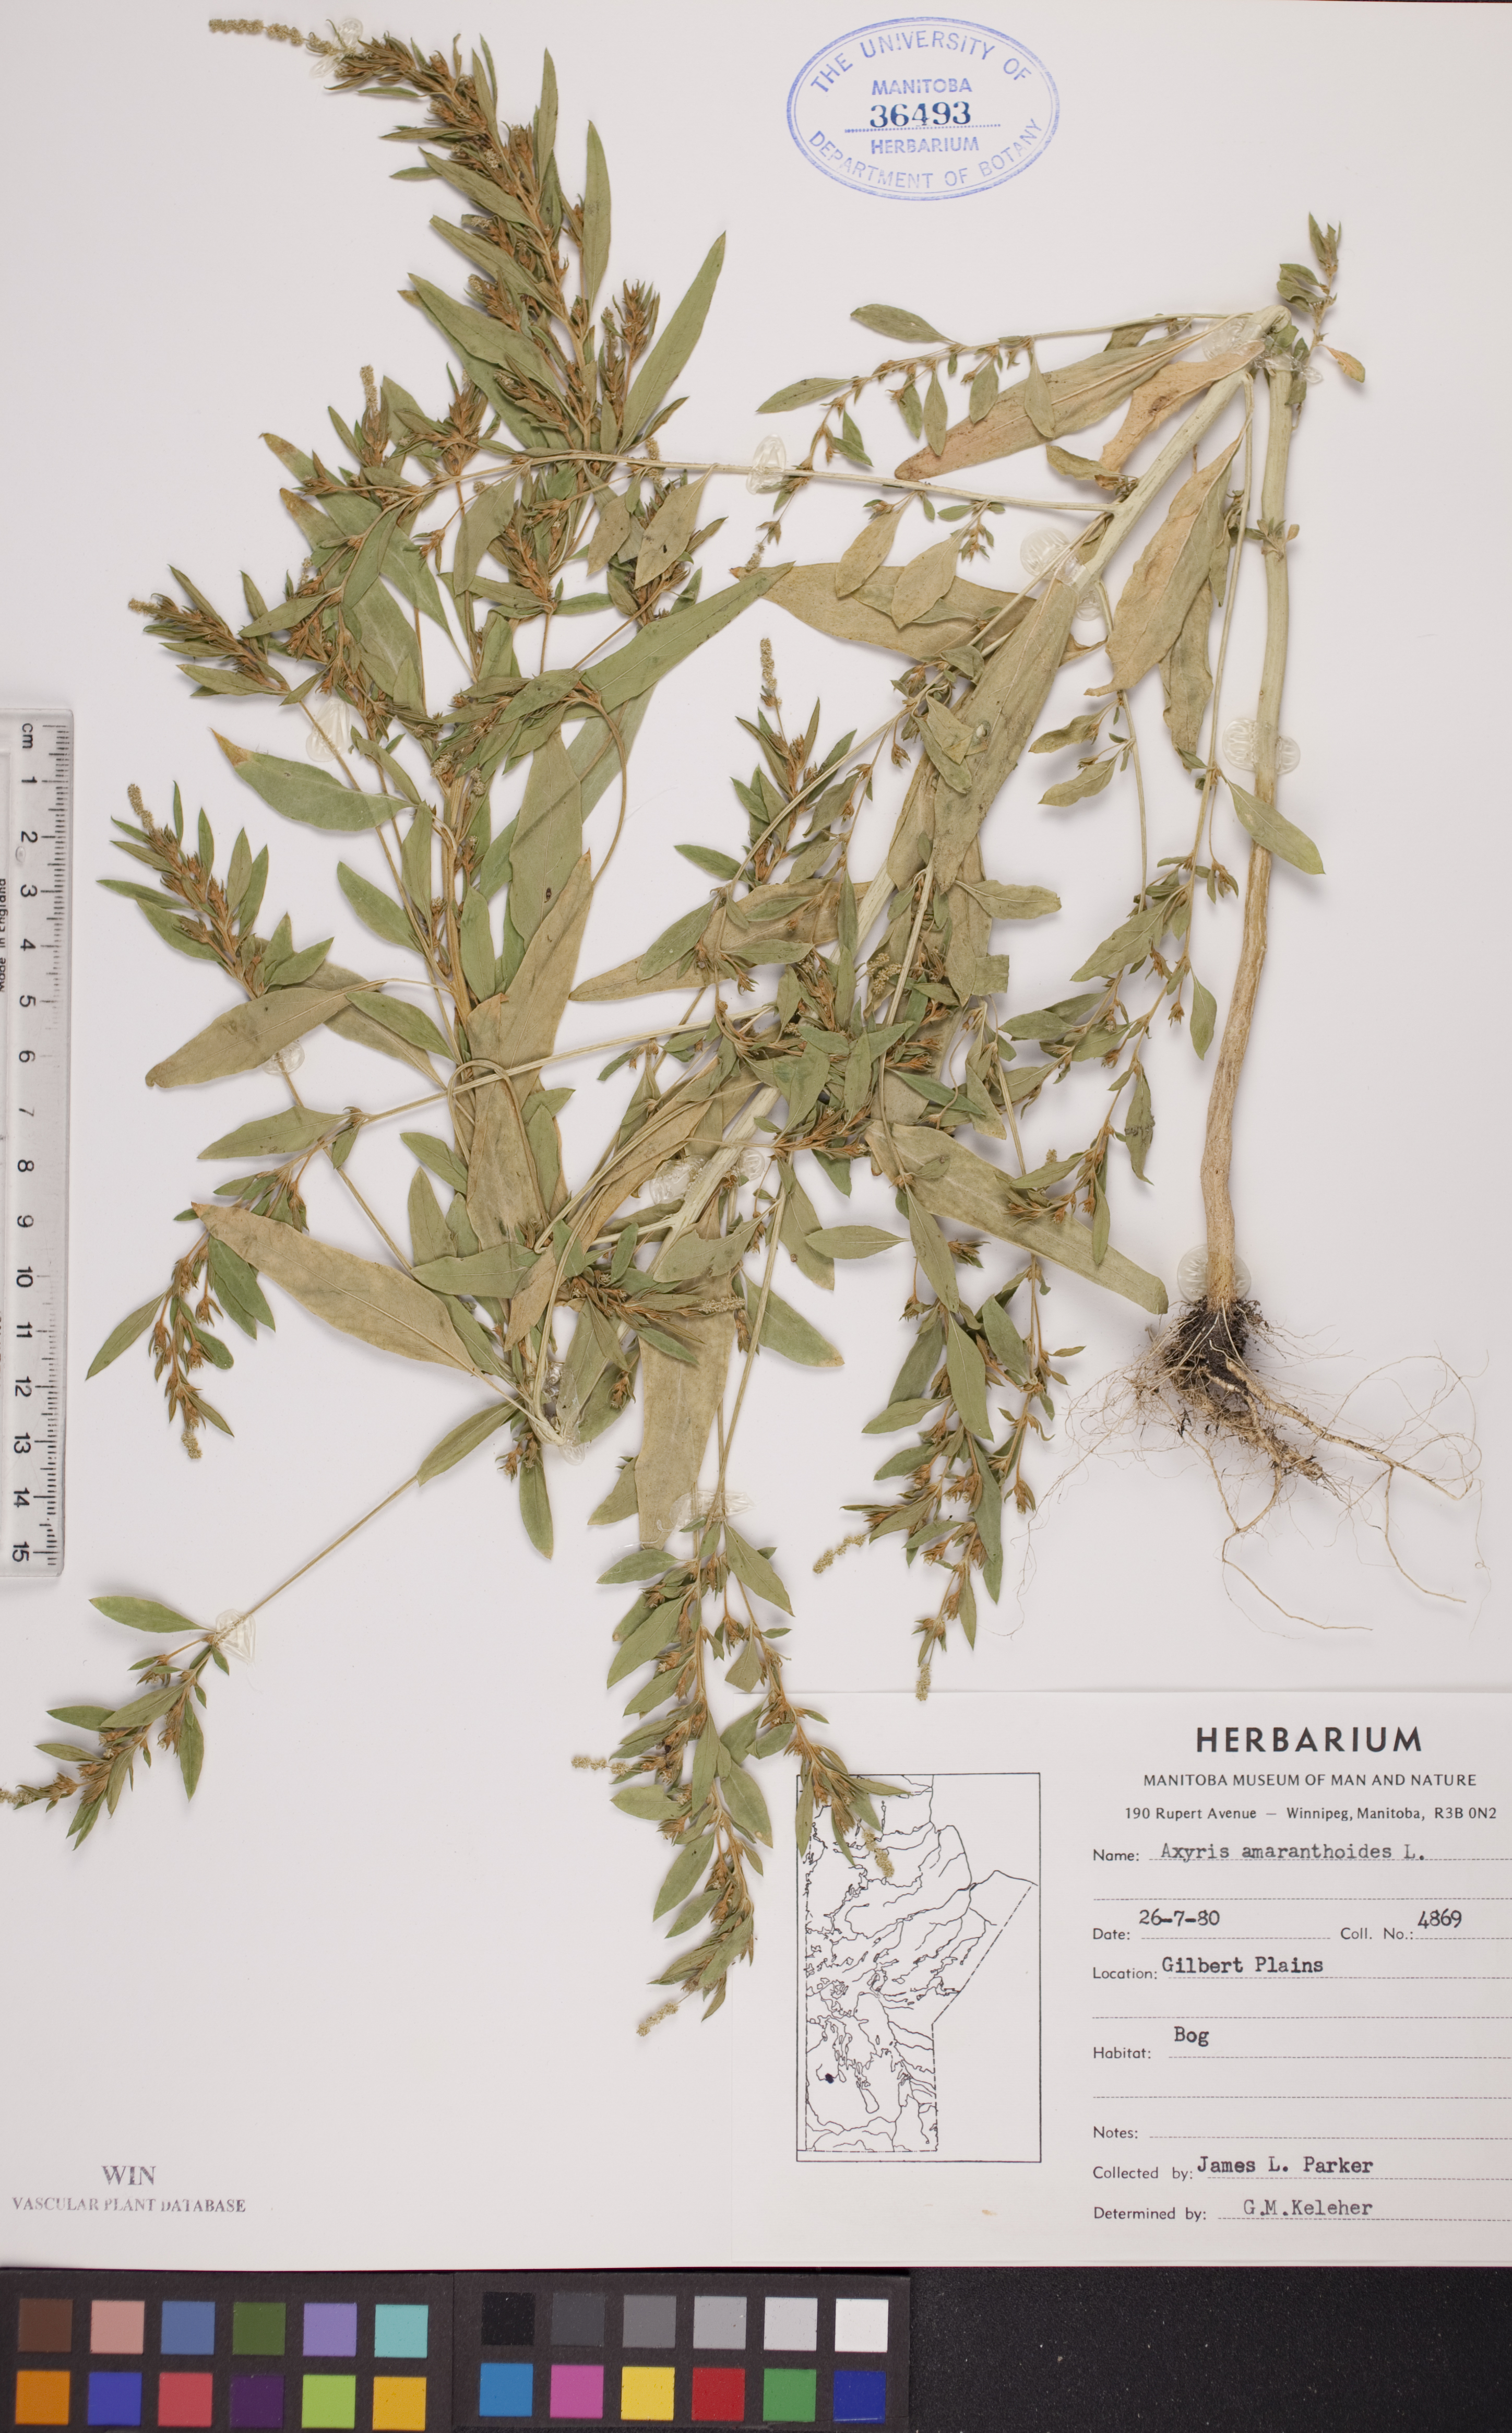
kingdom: Plantae
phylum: Tracheophyta
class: Magnoliopsida
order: Caryophyllales
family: Amaranthaceae
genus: Axyris
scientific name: Axyris amaranthoides
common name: Russian pigweed
